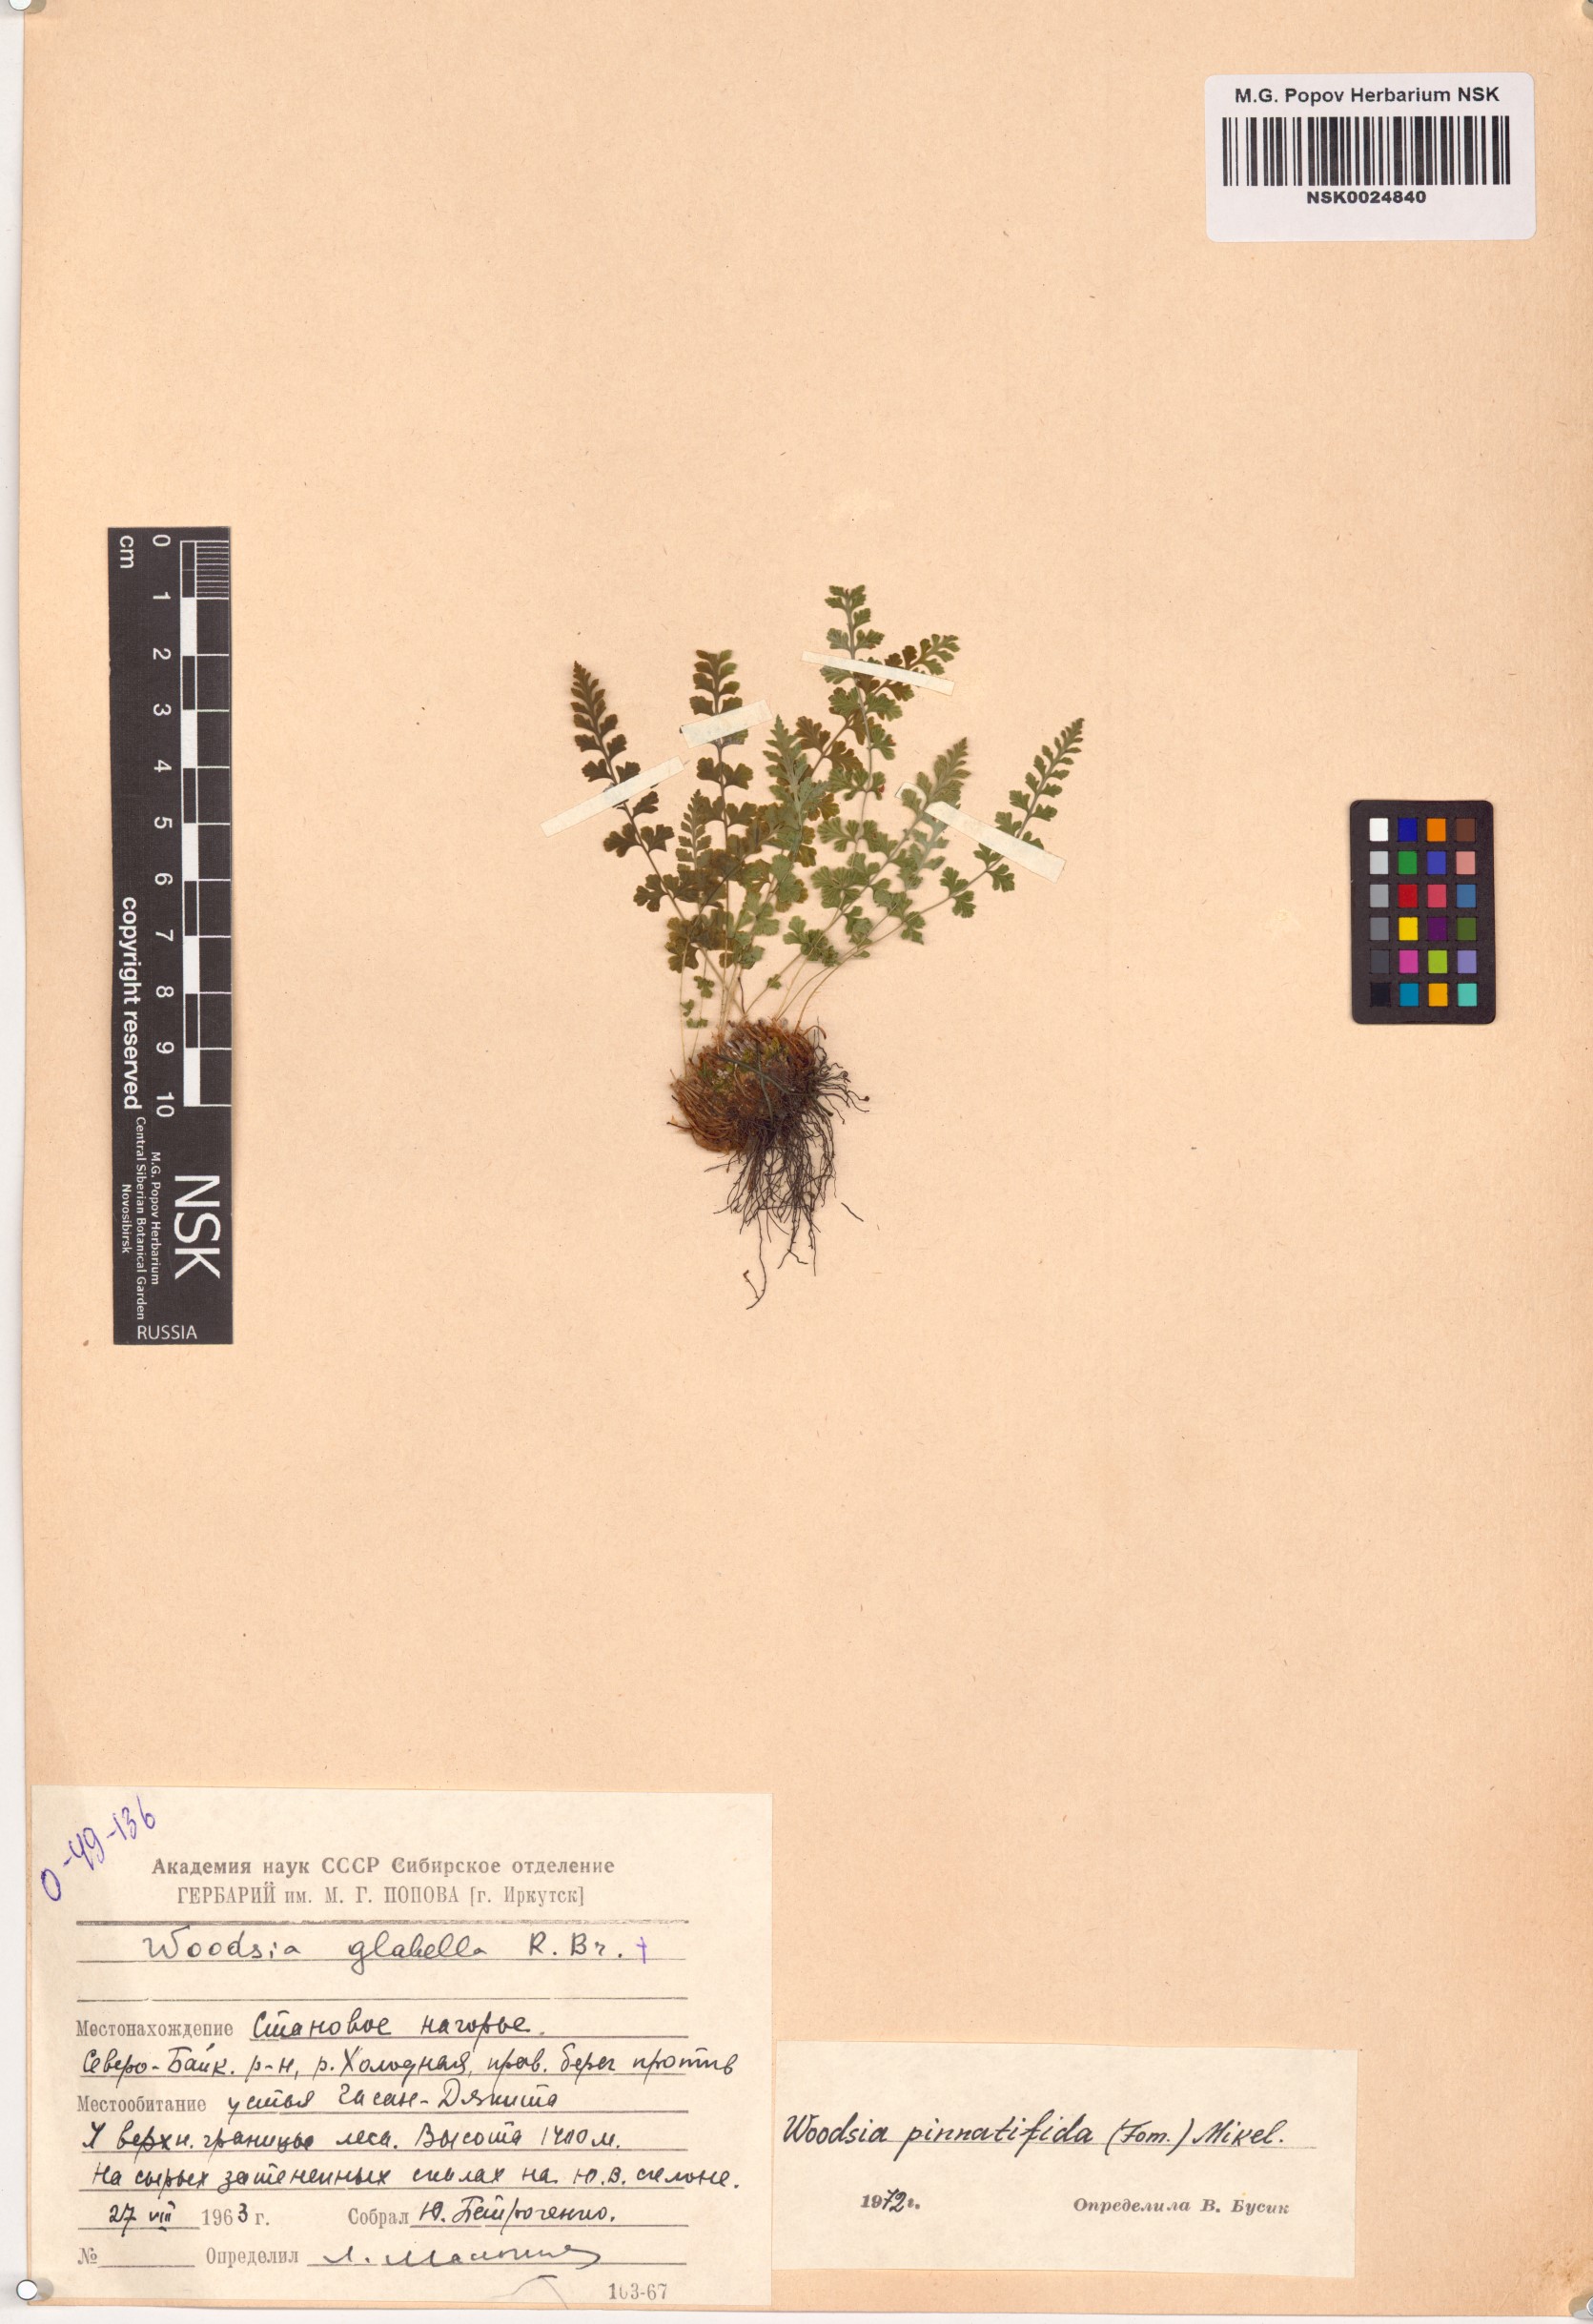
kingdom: Plantae
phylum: Tracheophyta
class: Polypodiopsida
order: Polypodiales
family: Woodsiaceae
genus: Woodsia
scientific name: Woodsia pulchella
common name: Graceful woodsia
